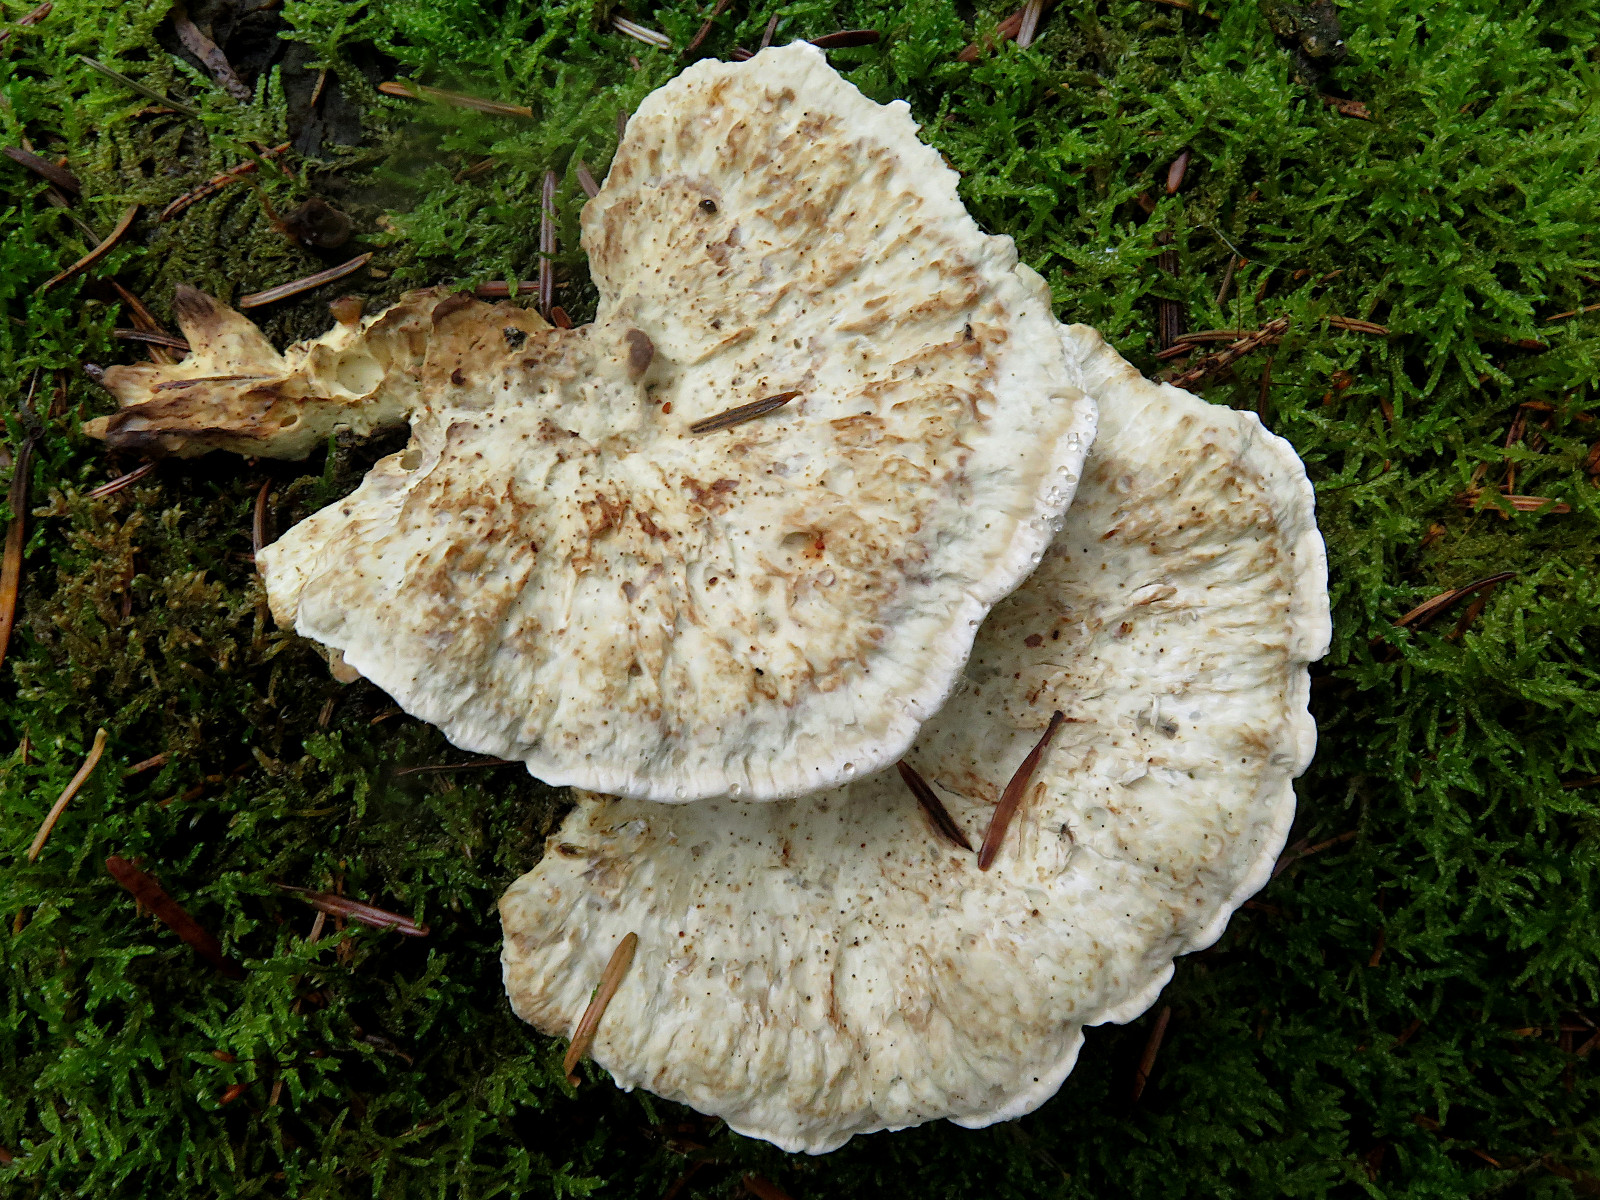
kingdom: Fungi
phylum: Basidiomycota
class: Agaricomycetes
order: Polyporales
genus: Calcipostia
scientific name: Calcipostia guttulata
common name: dråbe-kødporesvamp
